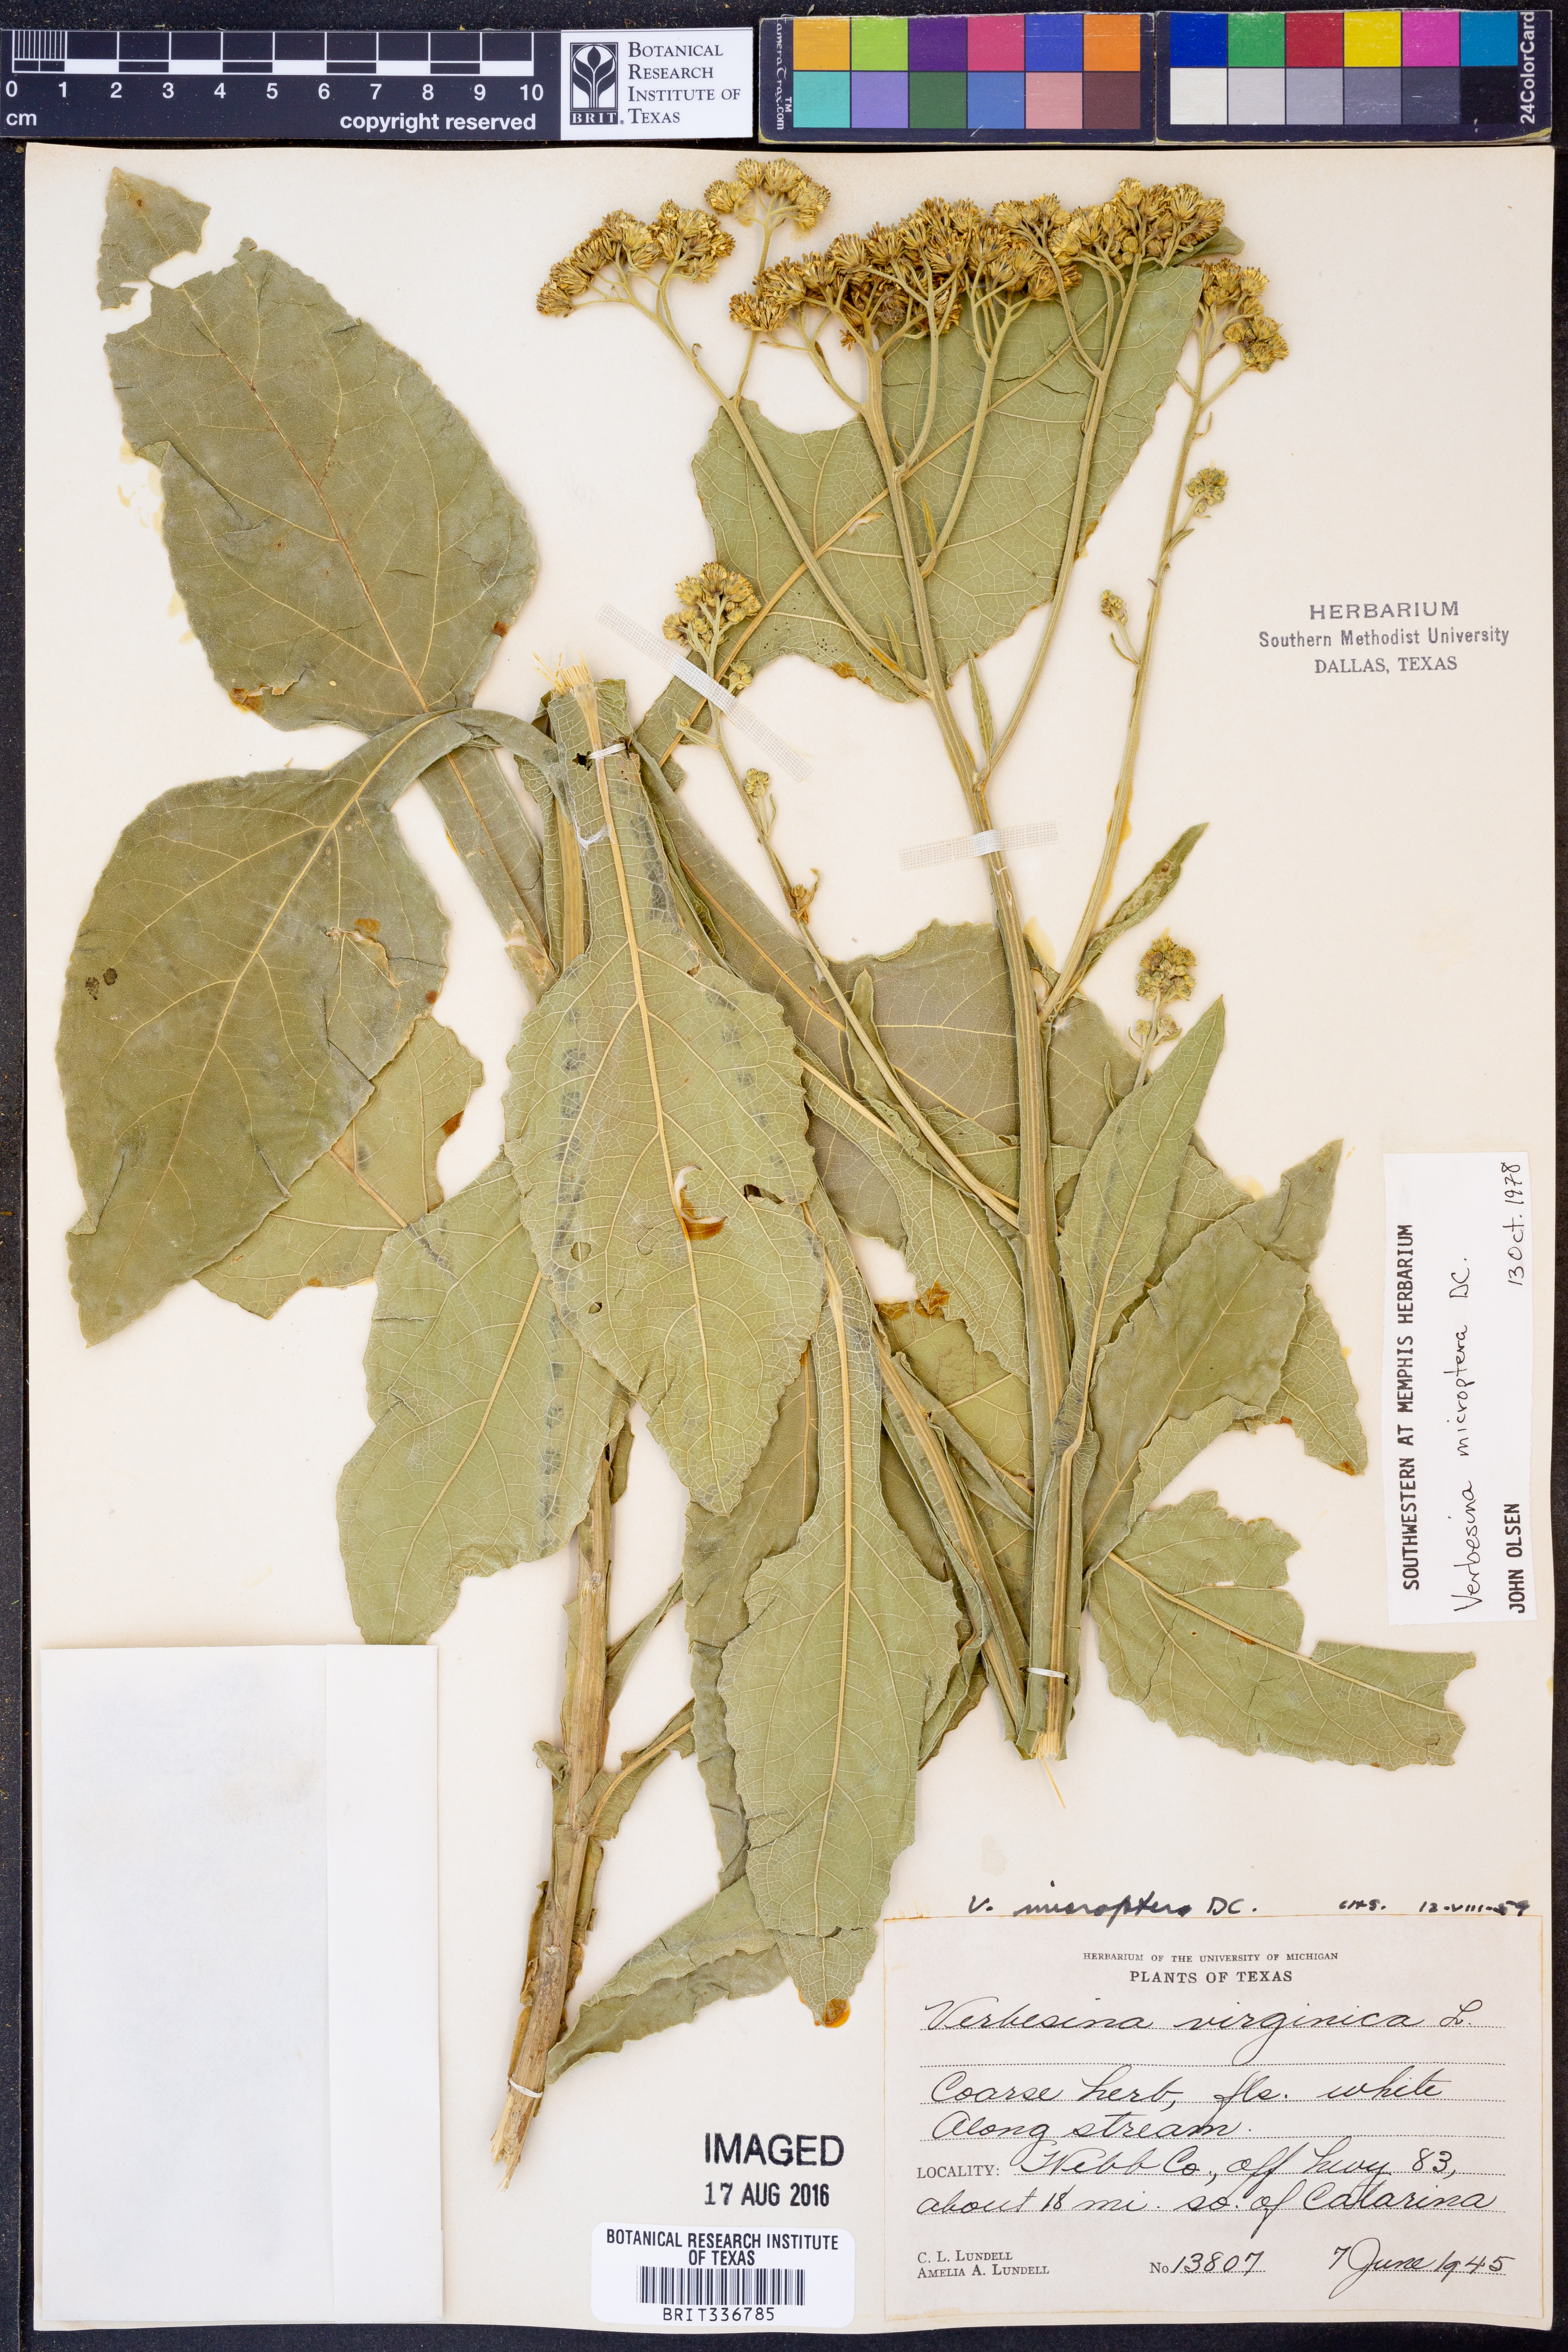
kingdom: Plantae
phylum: Tracheophyta
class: Magnoliopsida
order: Asterales
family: Asteraceae
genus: Verbesina
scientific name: Verbesina encelioides
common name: Golden crownbeard
